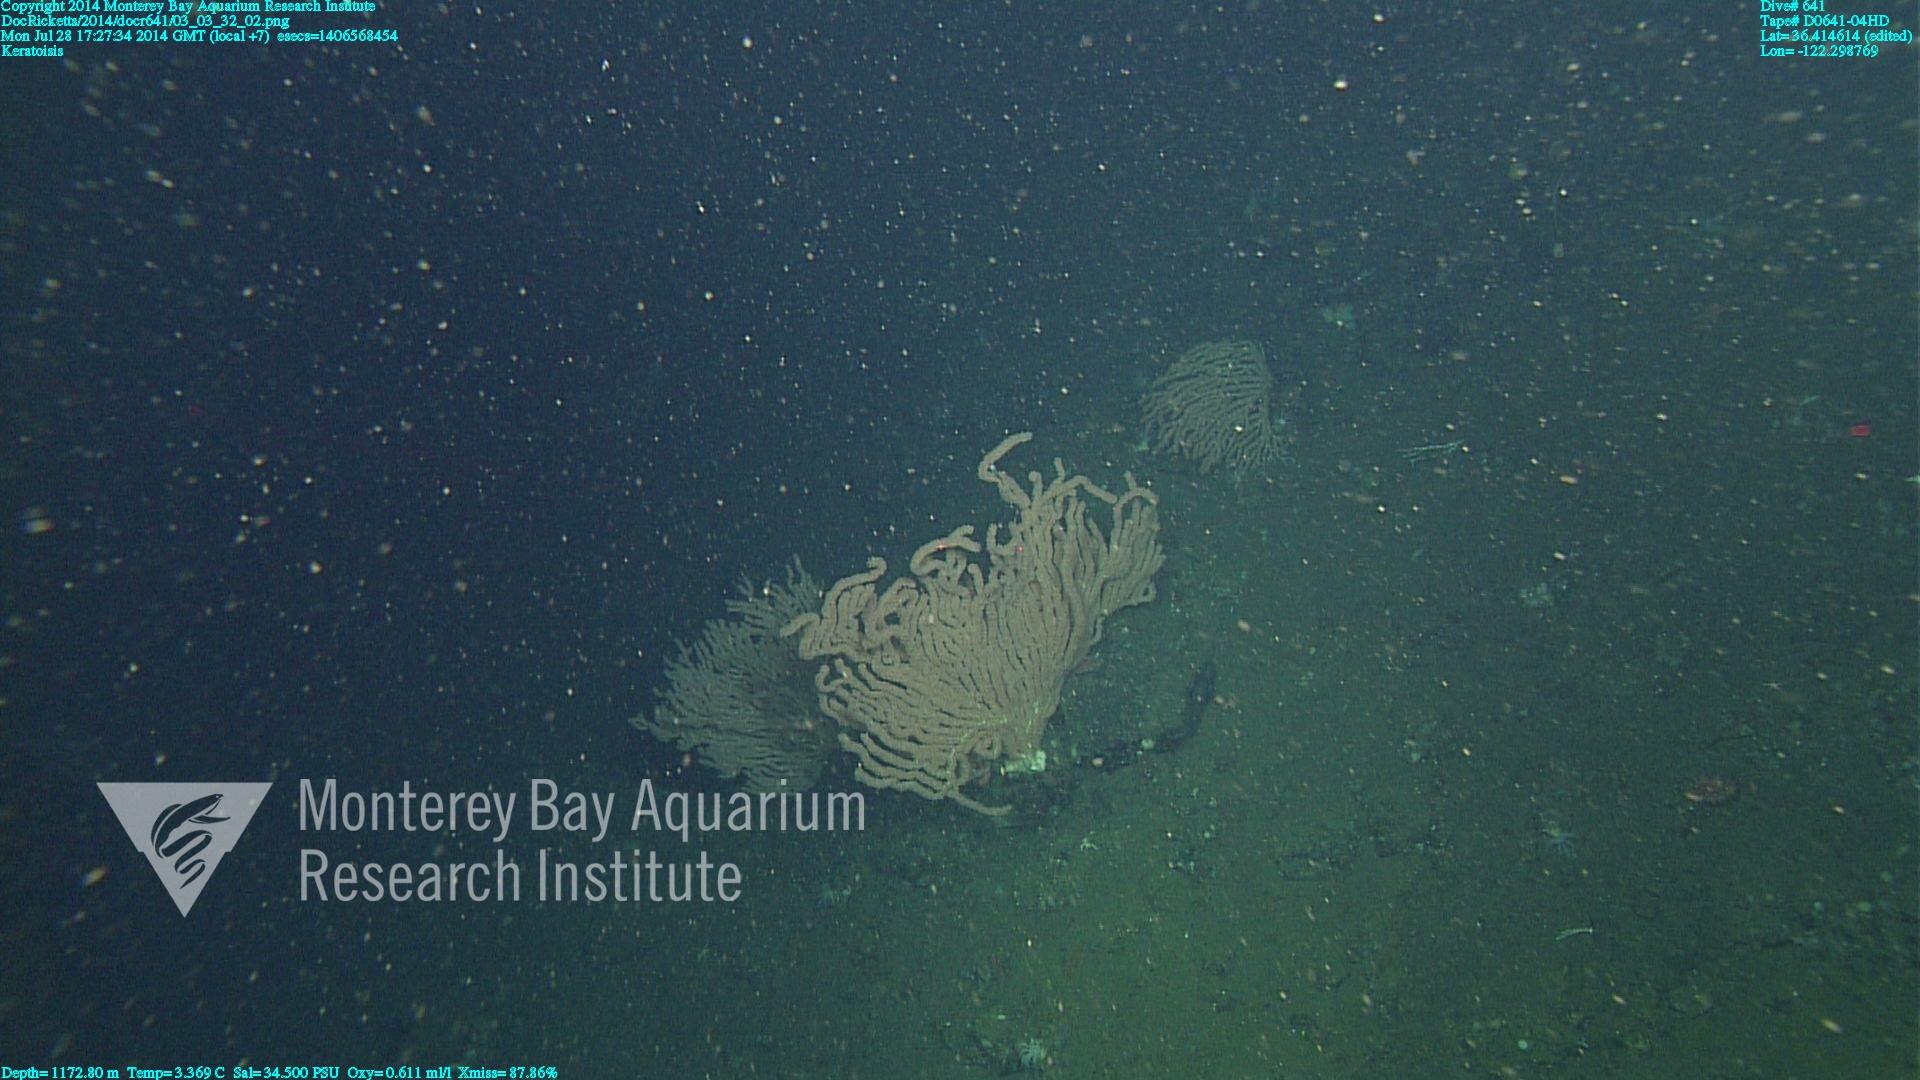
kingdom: Animalia
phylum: Cnidaria
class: Anthozoa
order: Scleralcyonacea
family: Keratoisididae
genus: Keratoisis
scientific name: Keratoisis
